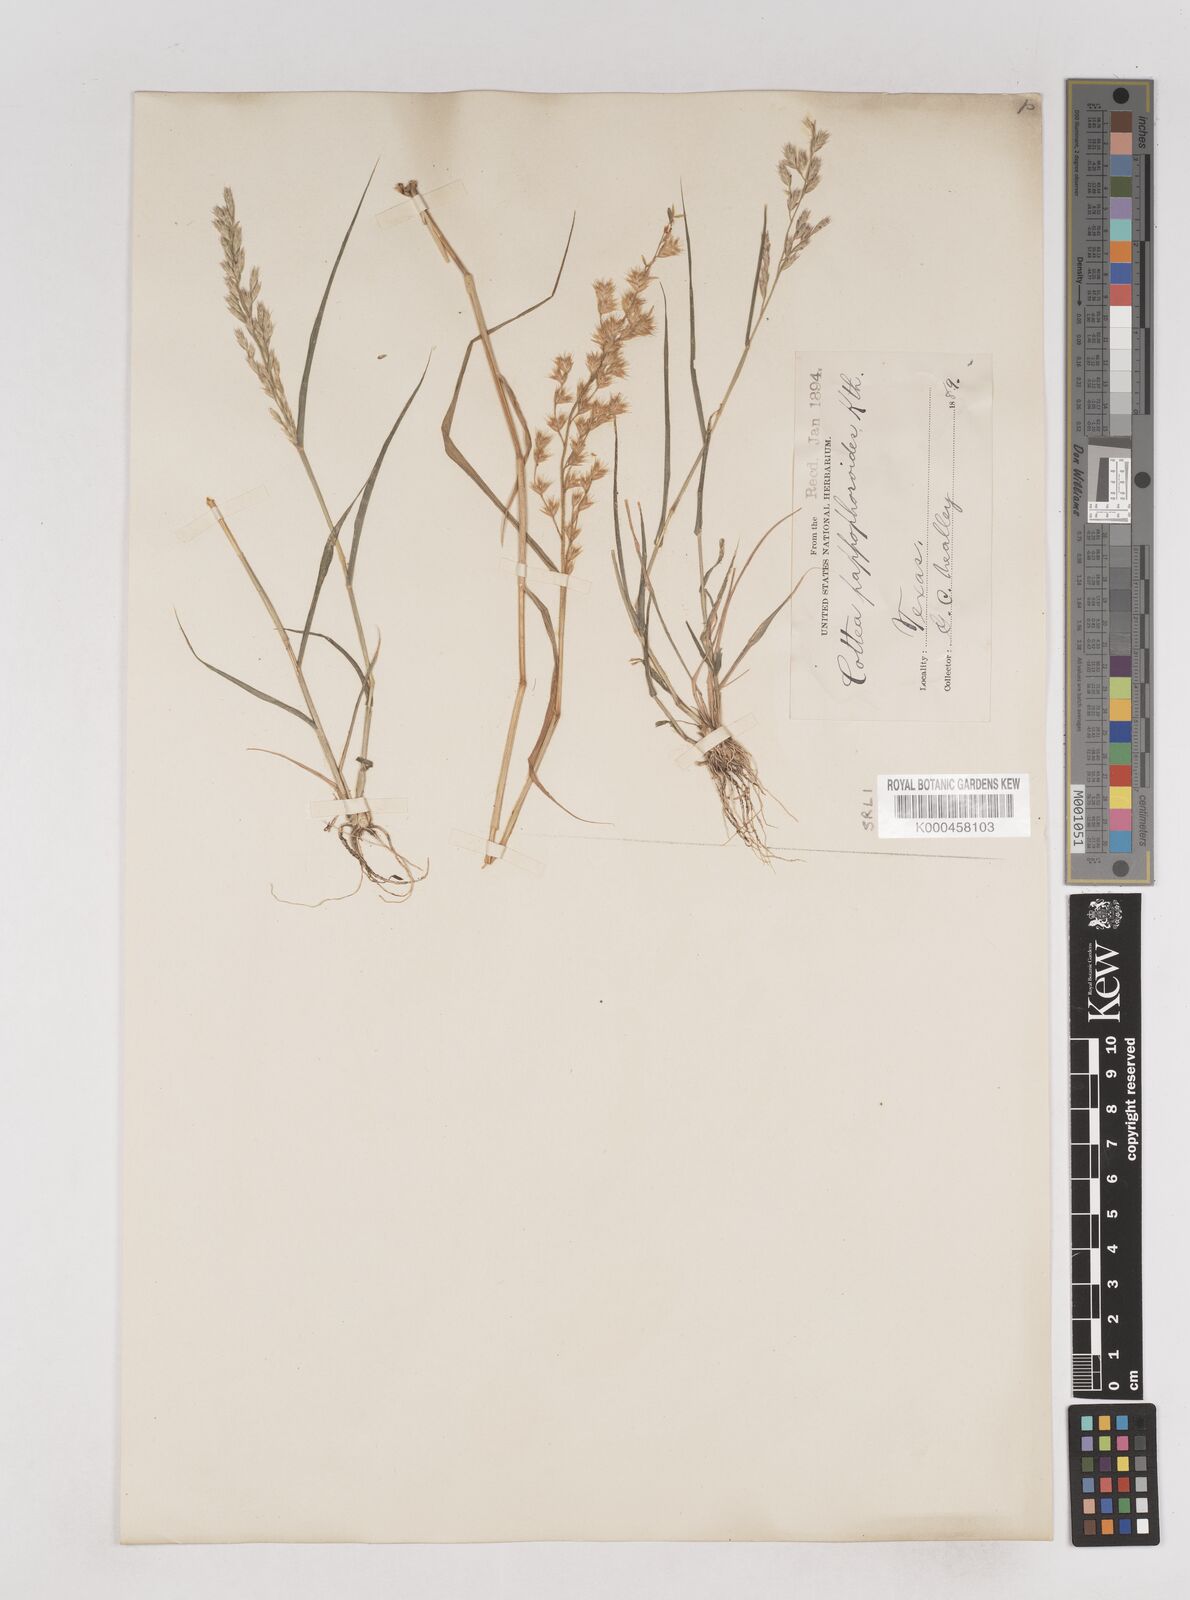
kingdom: Plantae
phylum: Tracheophyta
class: Liliopsida
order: Poales
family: Poaceae
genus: Cottea
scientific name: Cottea
